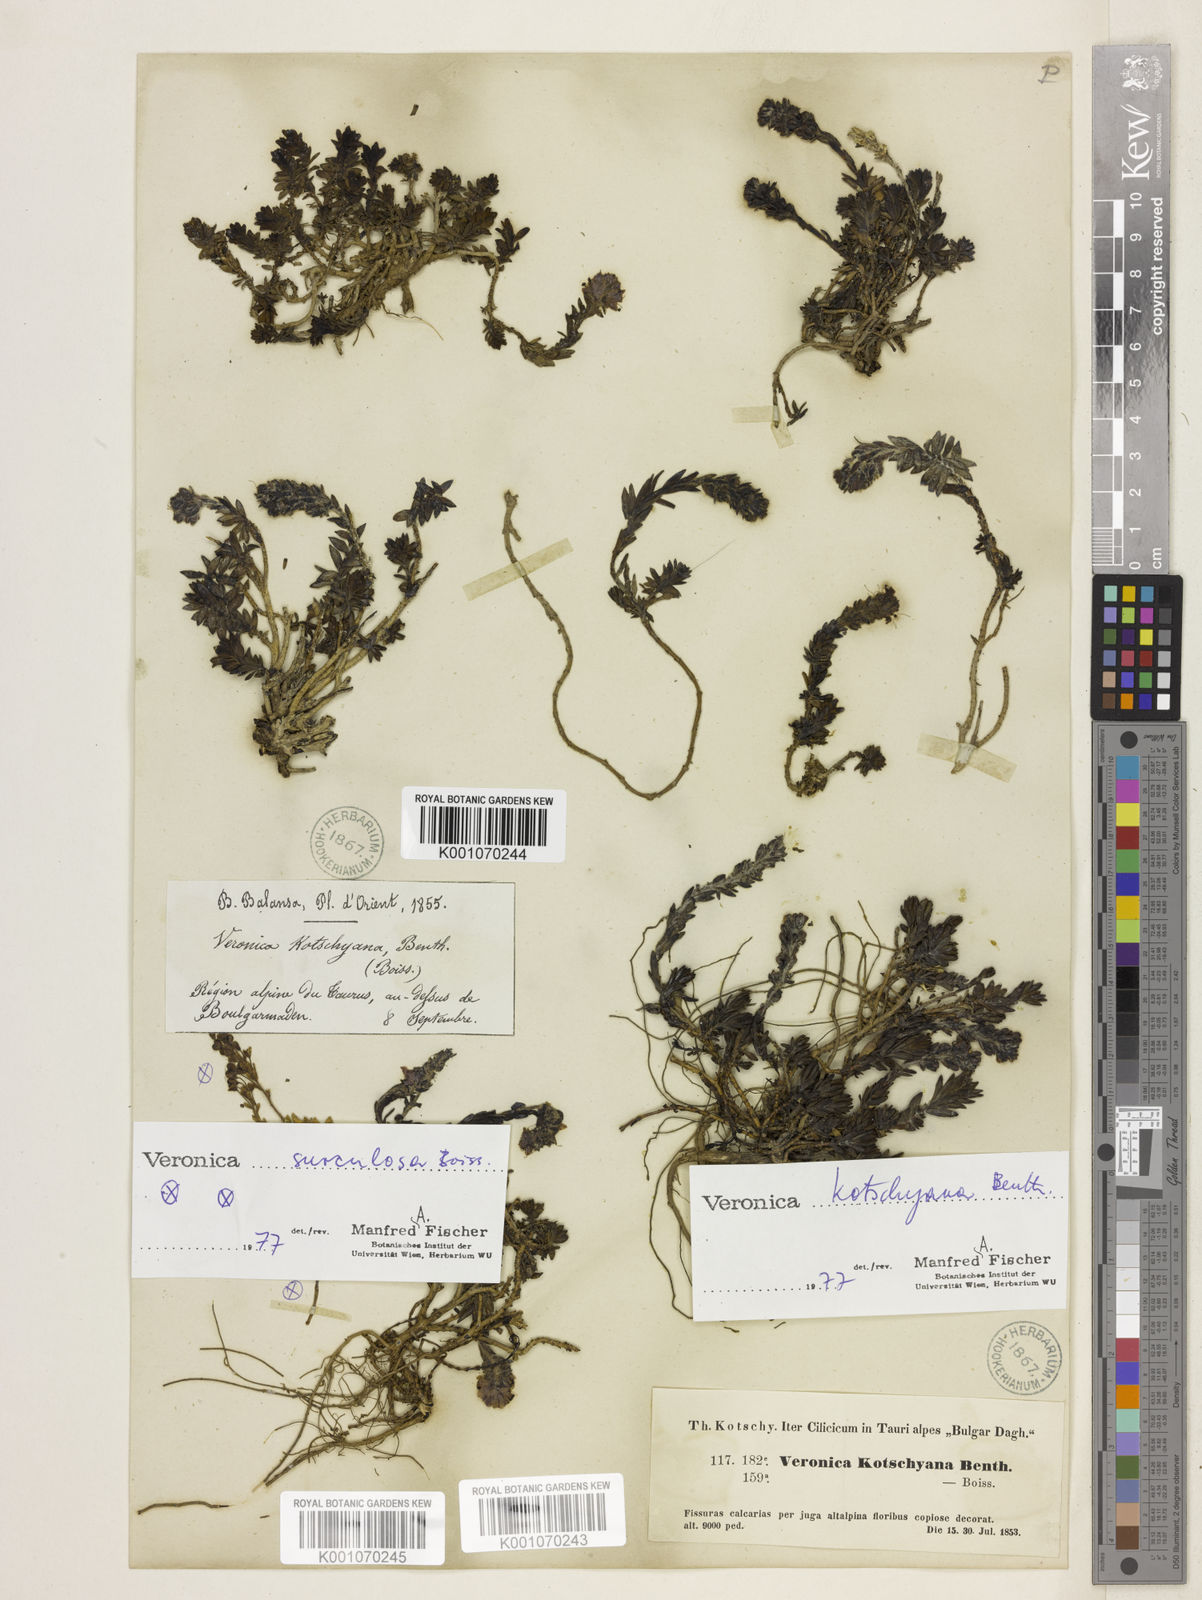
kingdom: Plantae
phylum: Tracheophyta
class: Magnoliopsida
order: Lamiales
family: Plantaginaceae
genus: Veronica
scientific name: Veronica kotschyana
